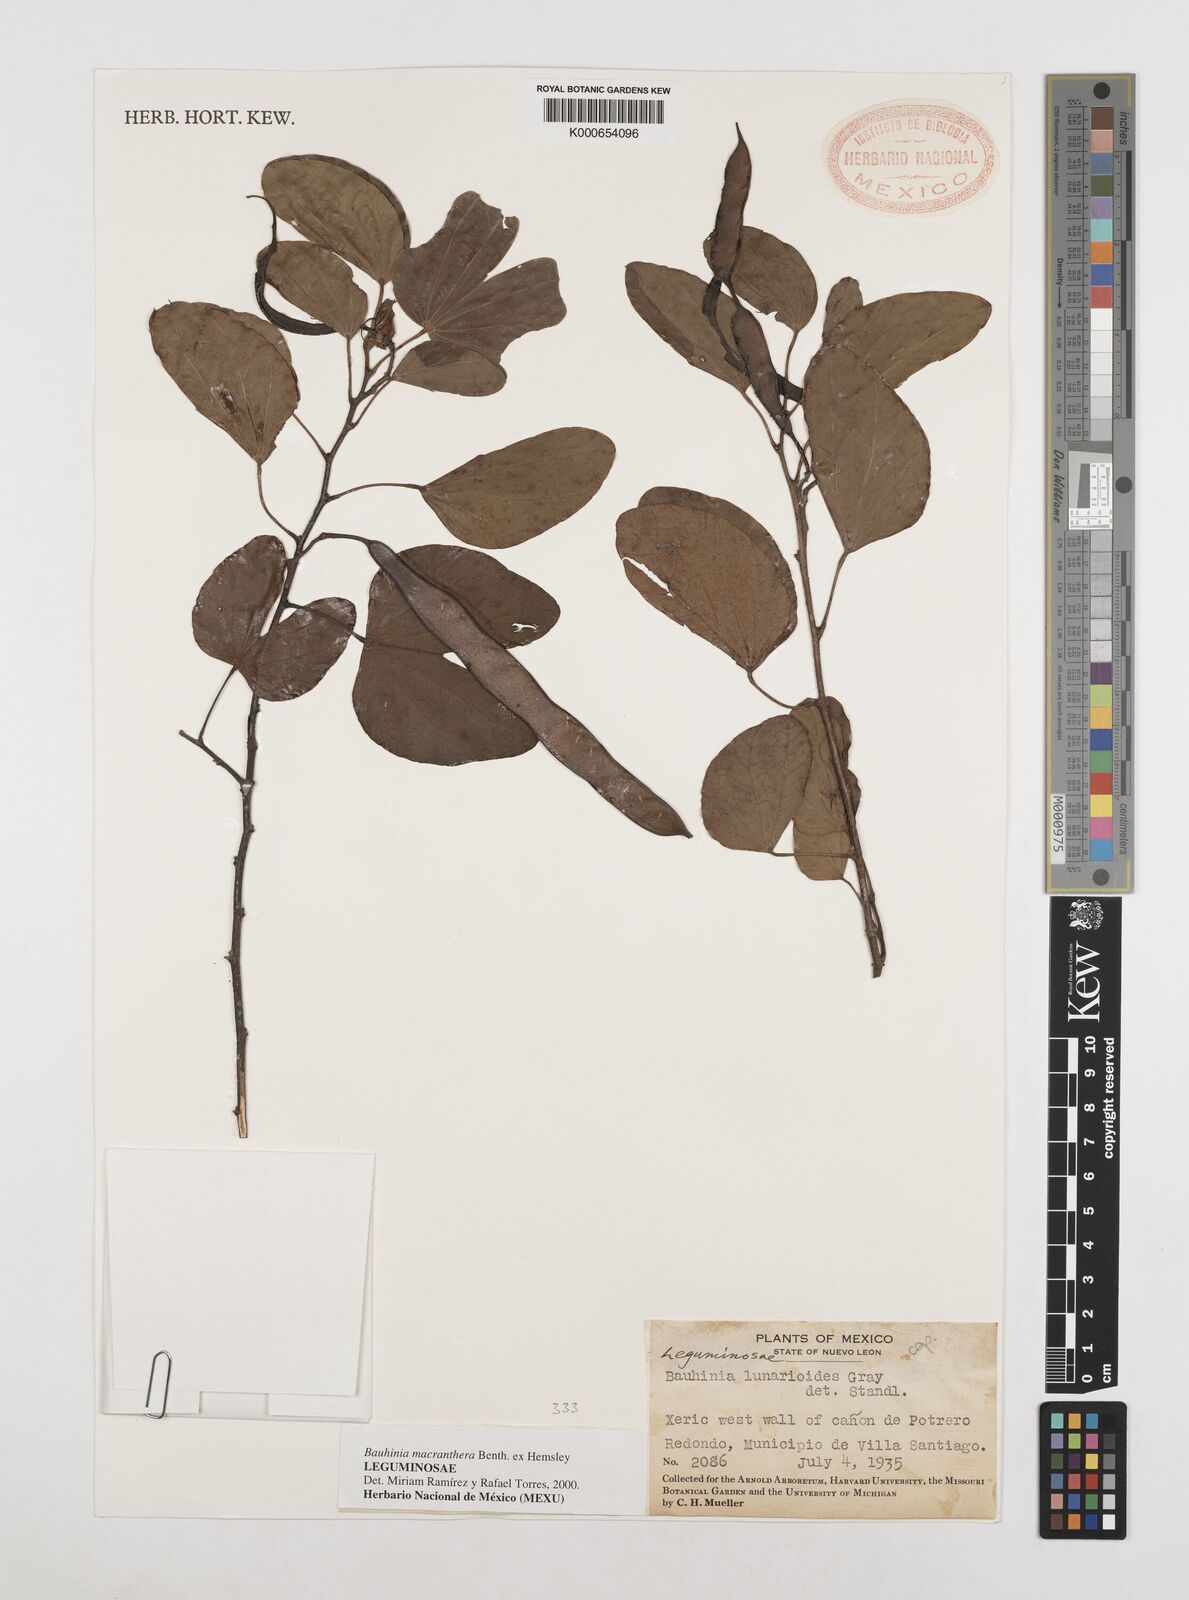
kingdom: Plantae
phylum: Tracheophyta
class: Magnoliopsida
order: Fabales
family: Fabaceae
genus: Bauhinia
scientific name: Bauhinia macranthera
